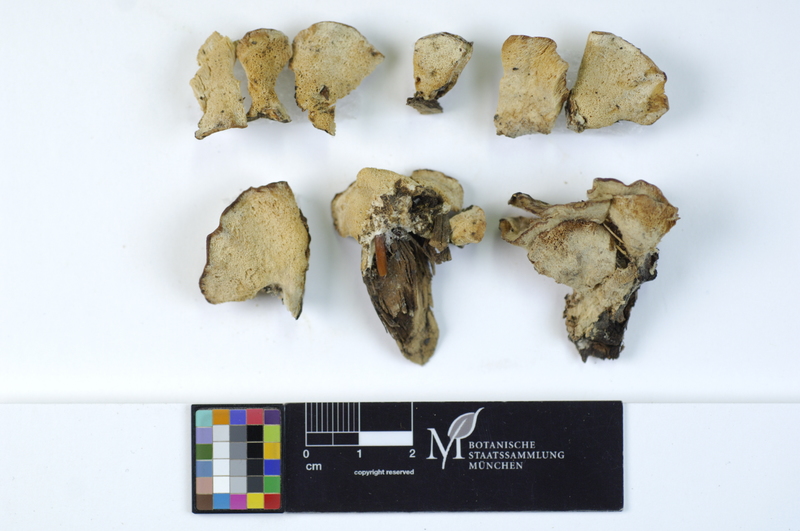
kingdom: Plantae
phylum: Tracheophyta
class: Pinopsida
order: Pinales
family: Pinaceae
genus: Larix
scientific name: Larix
